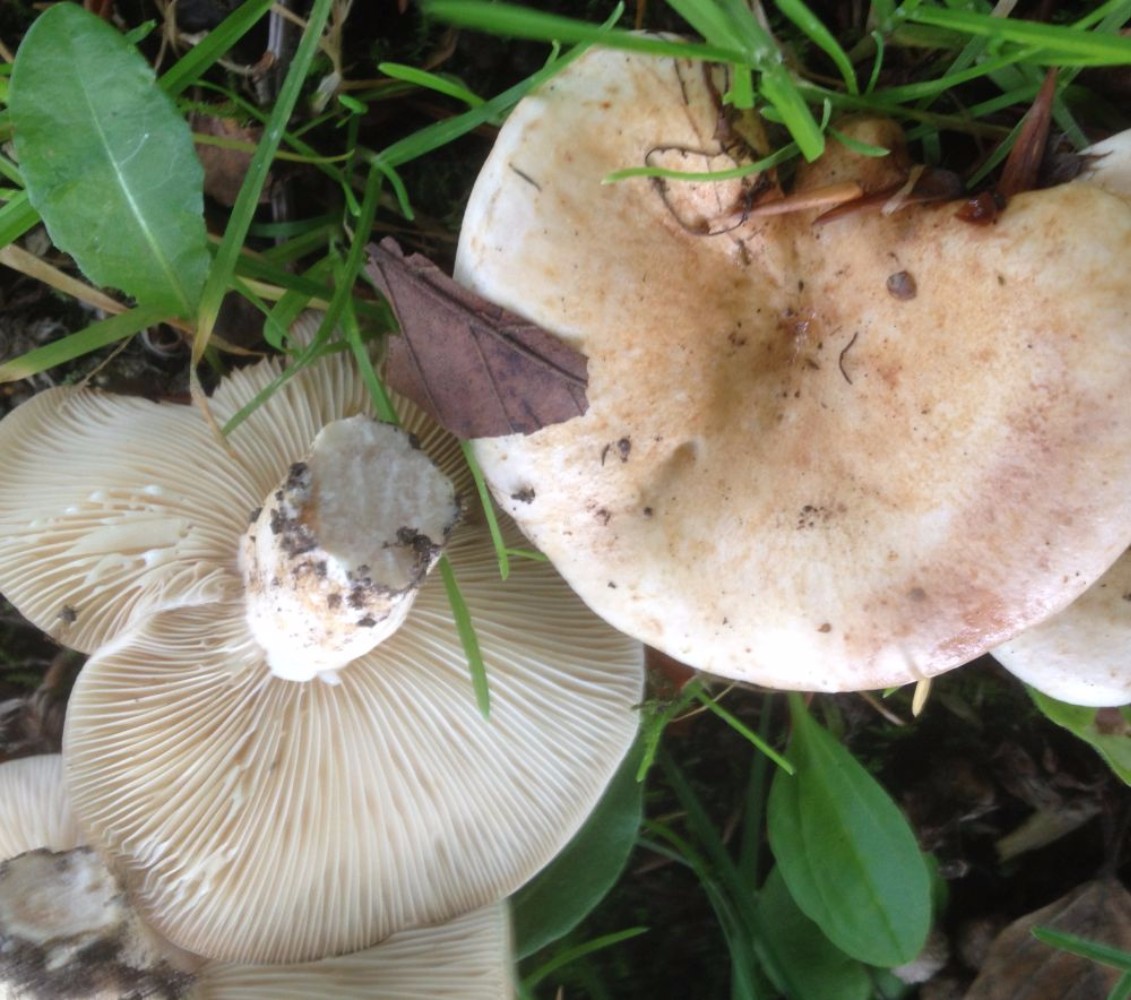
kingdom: Fungi
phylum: Basidiomycota
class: Agaricomycetes
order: Russulales
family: Russulaceae
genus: Lactarius
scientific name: Lactarius pallidus
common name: bleg mælkehat
